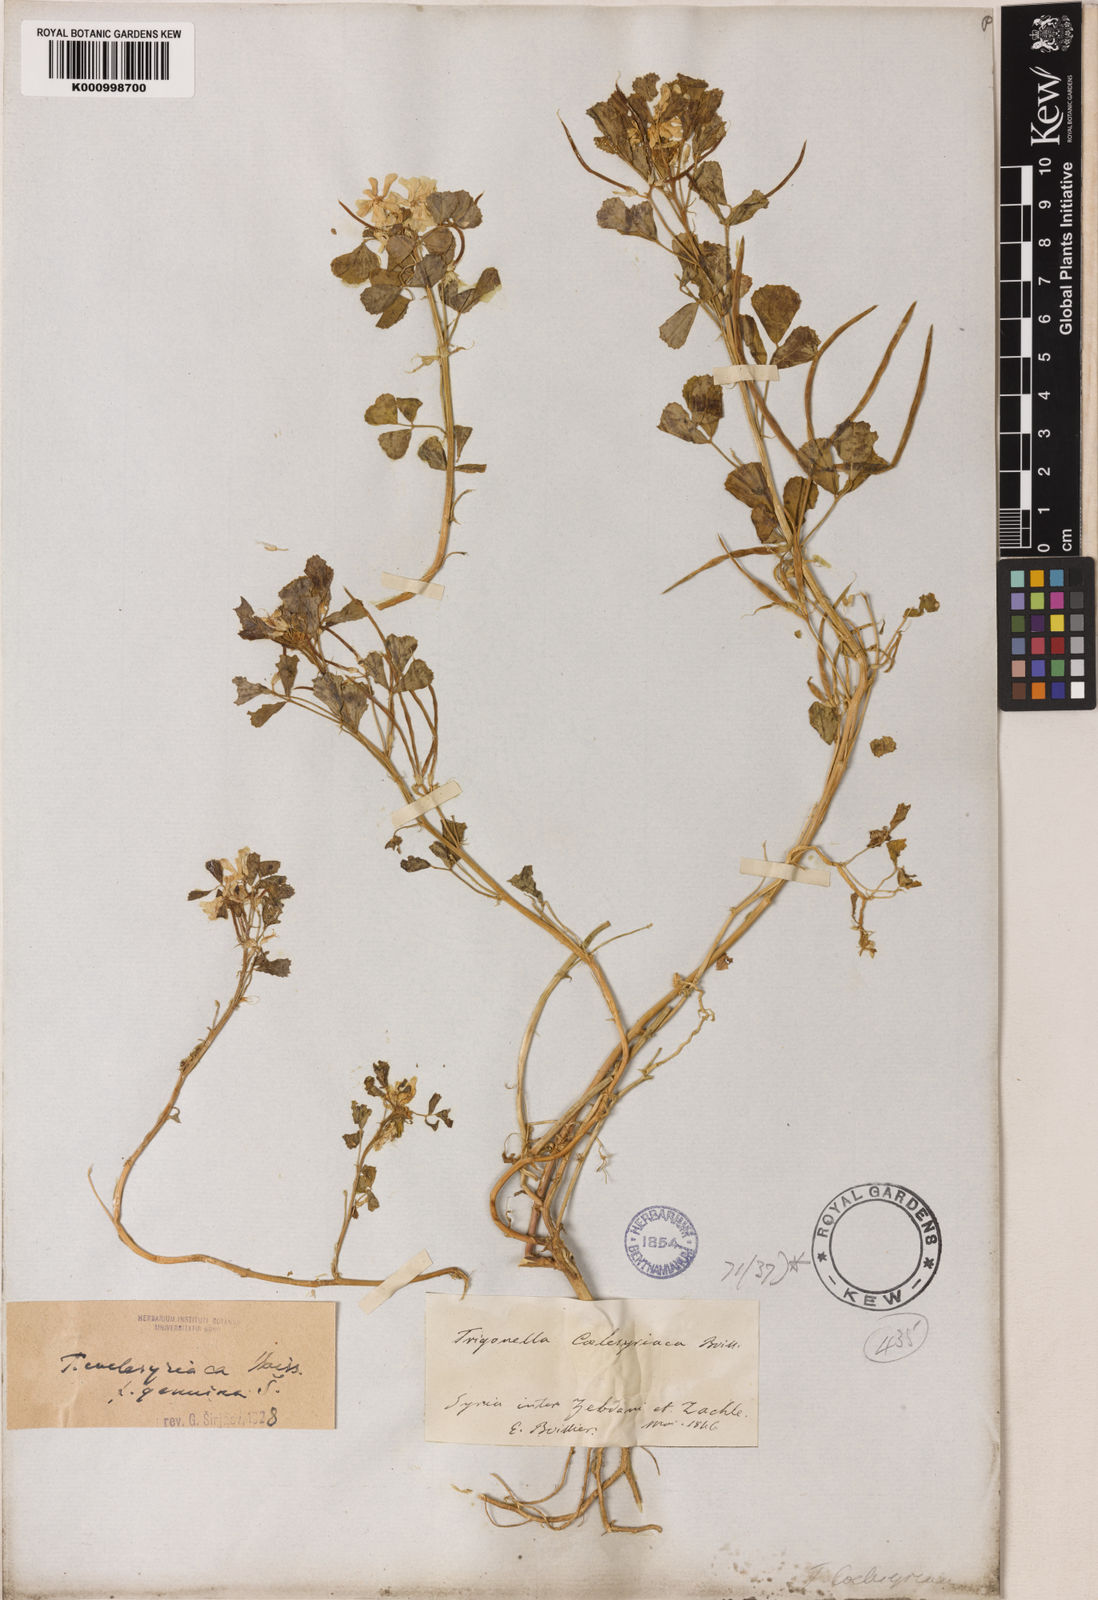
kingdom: Plantae
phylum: Tracheophyta
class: Magnoliopsida
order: Fabales
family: Fabaceae
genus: Trigonella
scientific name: Trigonella caelesyriaca
